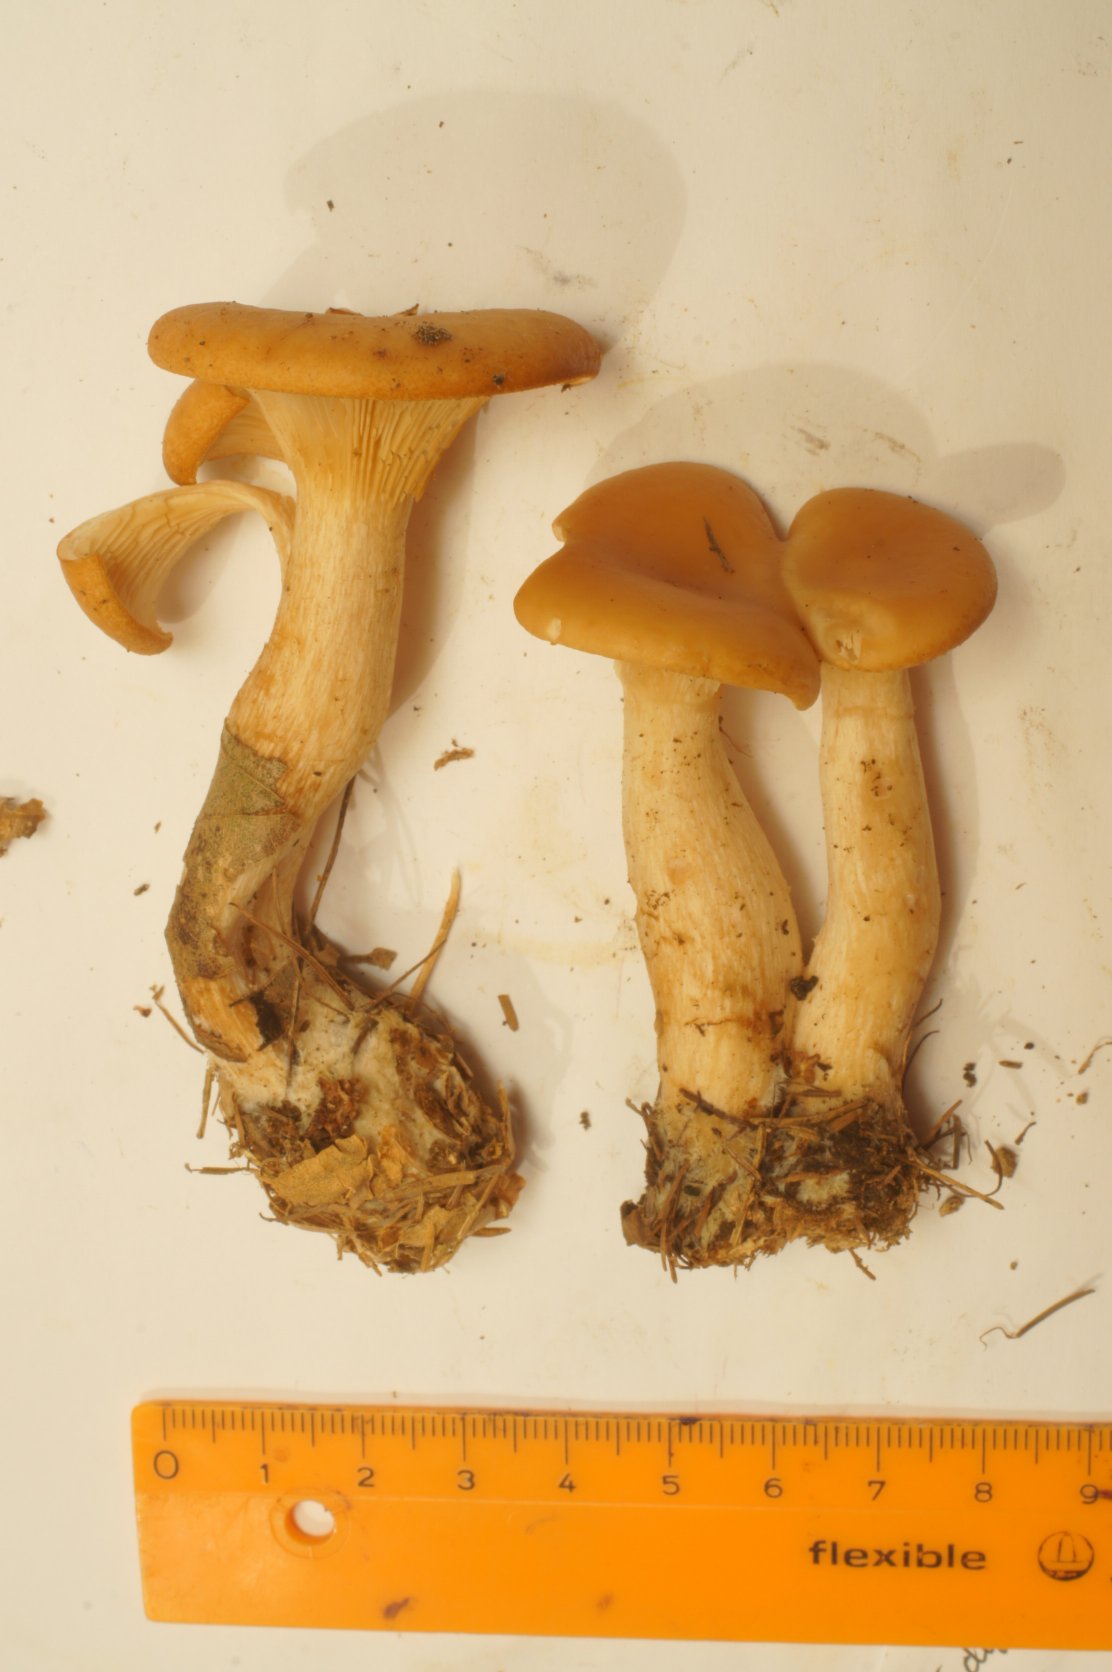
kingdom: Fungi
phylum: Basidiomycota
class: Agaricomycetes
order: Agaricales
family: Tricholomataceae
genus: Paralepista
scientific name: Paralepista flaccida
